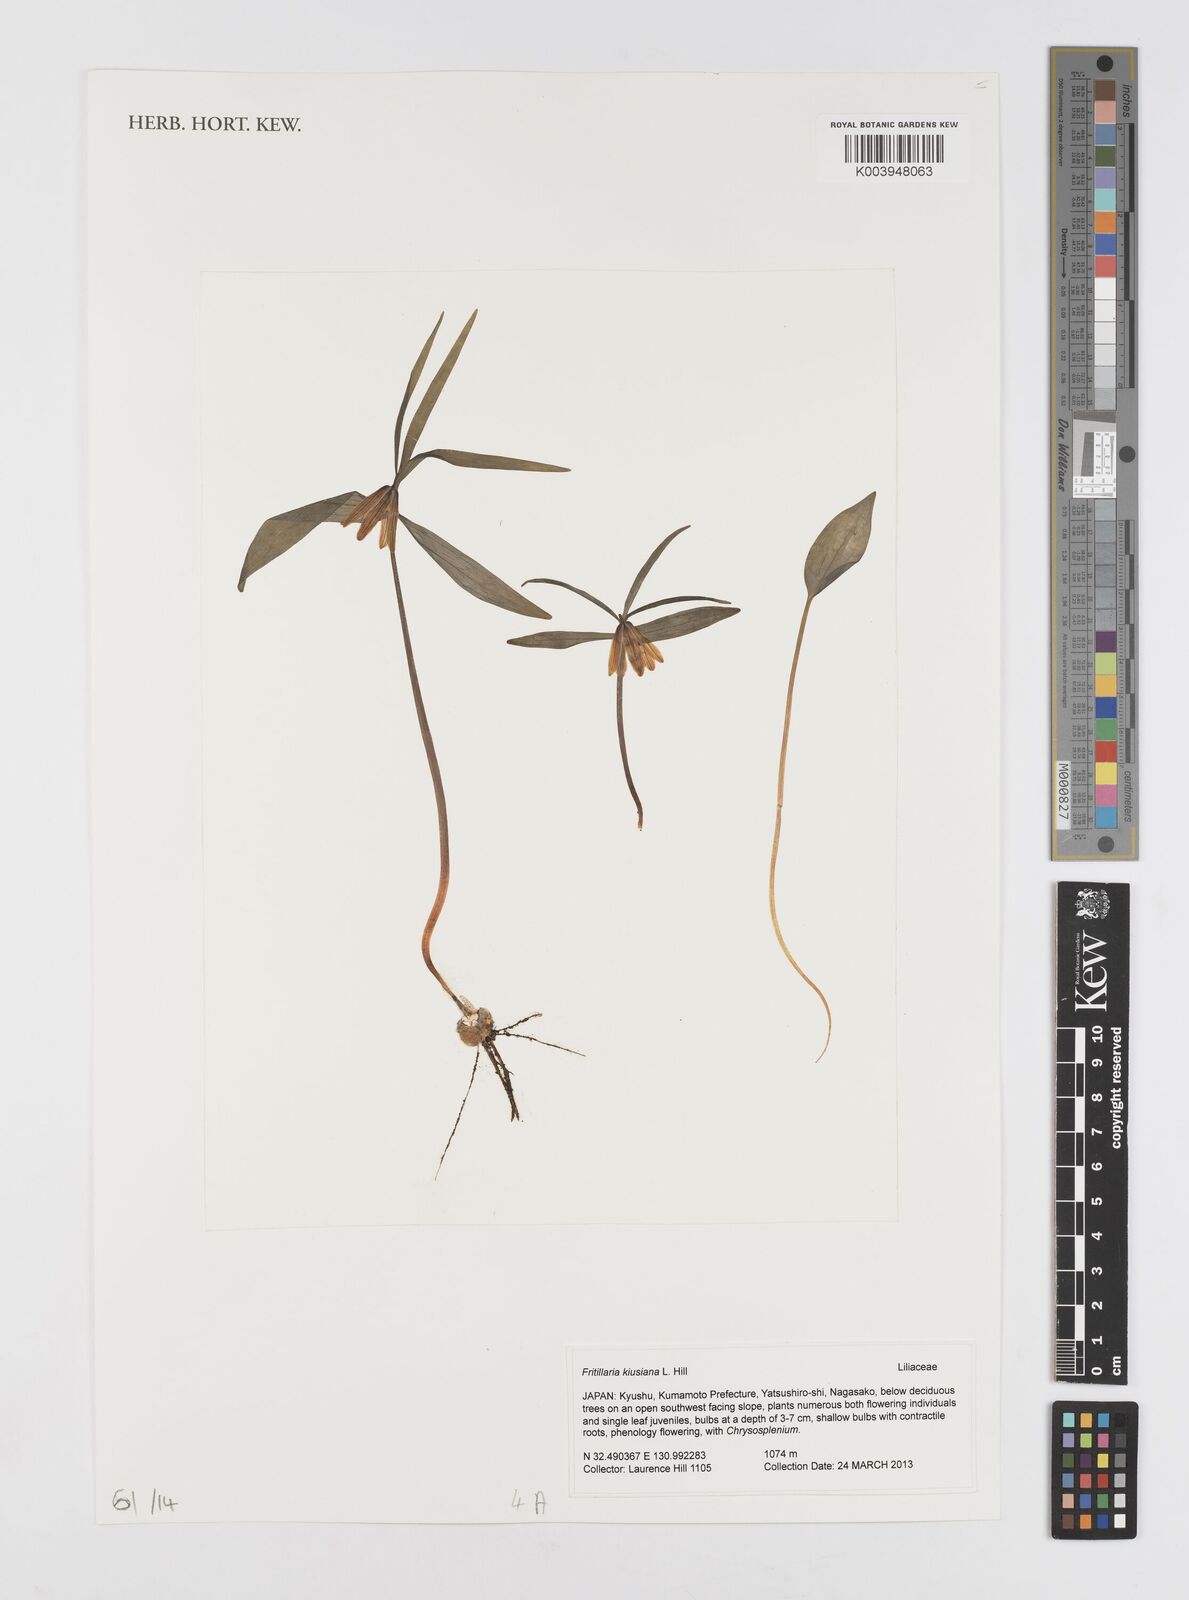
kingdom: Plantae
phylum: Tracheophyta
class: Liliopsida
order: Liliales
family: Liliaceae
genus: Fritillaria
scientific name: Fritillaria kiusiana
